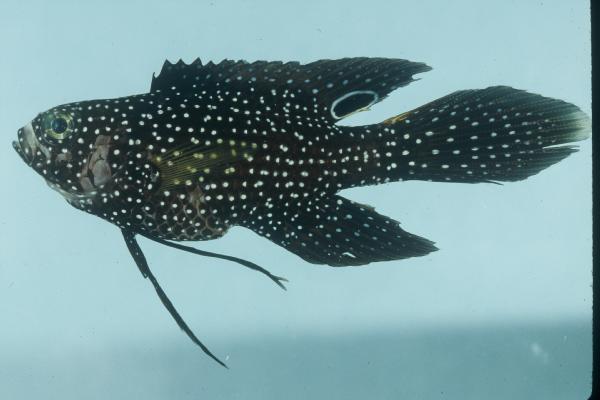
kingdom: Animalia
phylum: Chordata
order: Perciformes
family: Plesiopidae
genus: Calloplesiops
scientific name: Calloplesiops altivelis
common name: Comet
